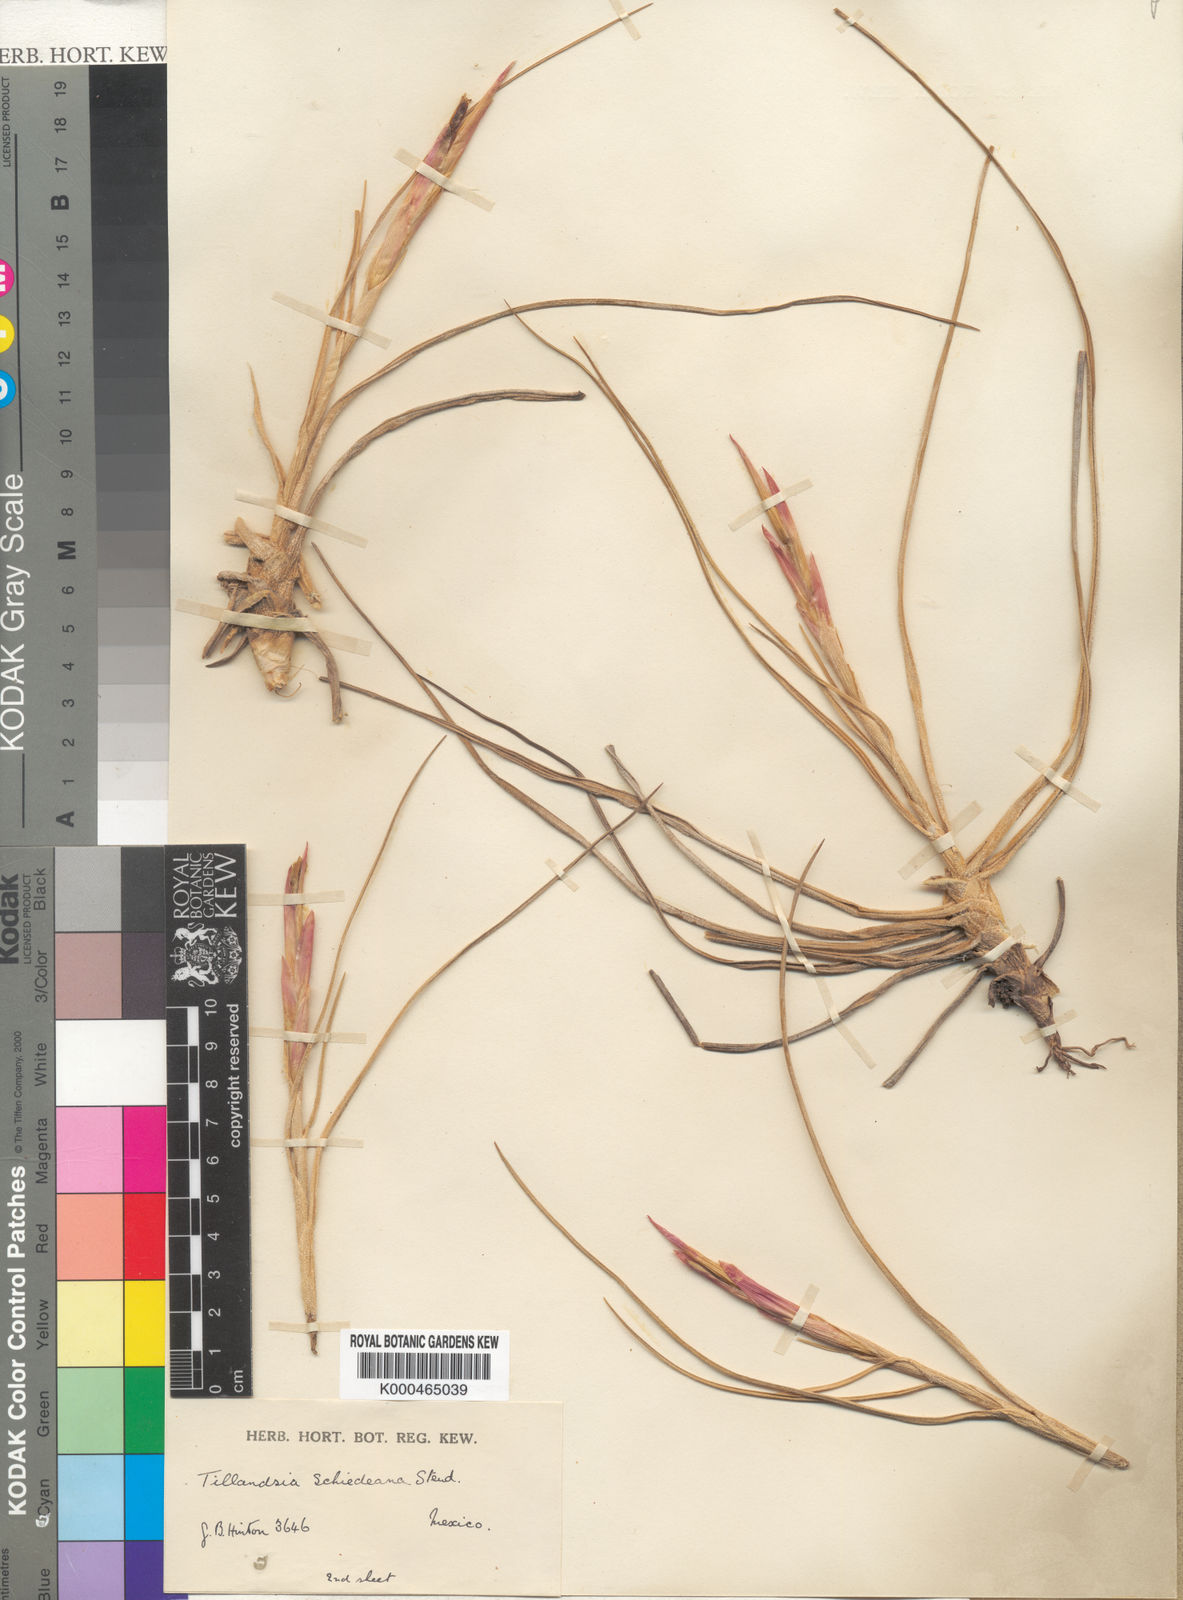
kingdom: Plantae
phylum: Tracheophyta
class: Liliopsida
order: Poales
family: Bromeliaceae
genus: Tillandsia
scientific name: Tillandsia schiedeana
